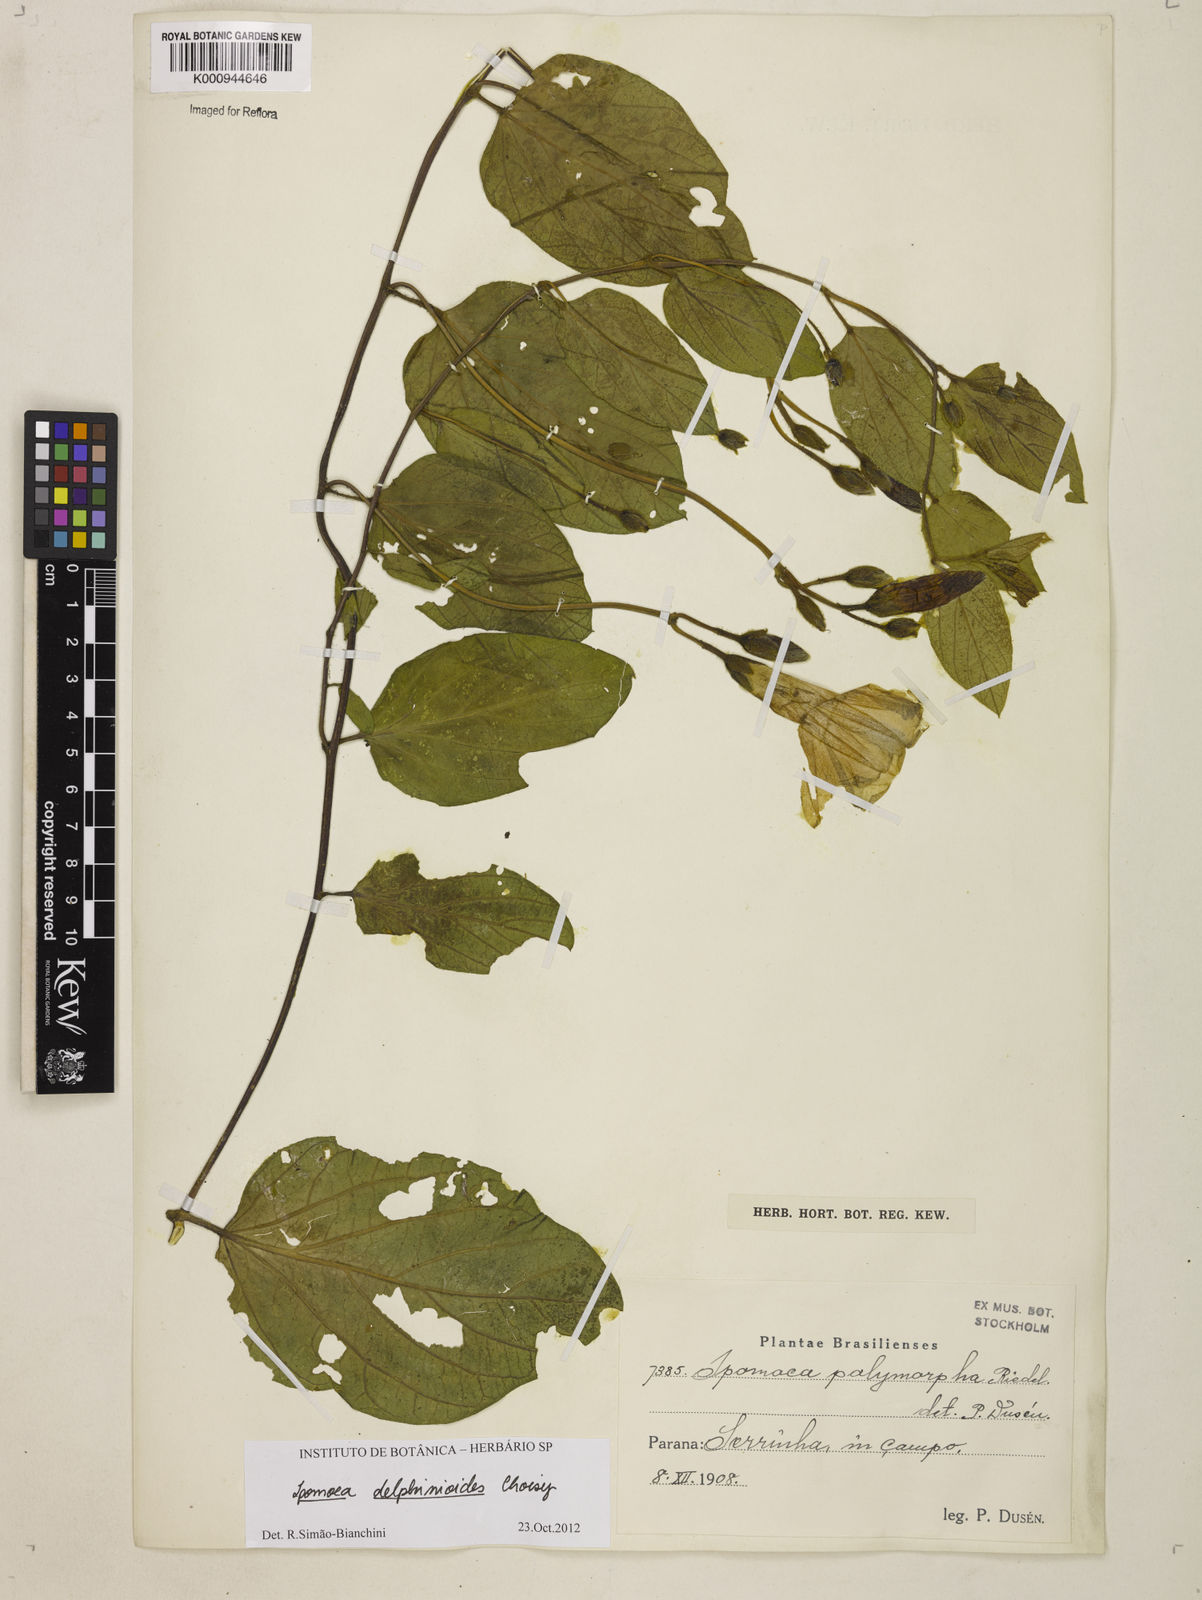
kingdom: Plantae
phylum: Tracheophyta
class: Magnoliopsida
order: Solanales
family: Convolvulaceae
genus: Ipomoea
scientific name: Ipomoea delphinioides
